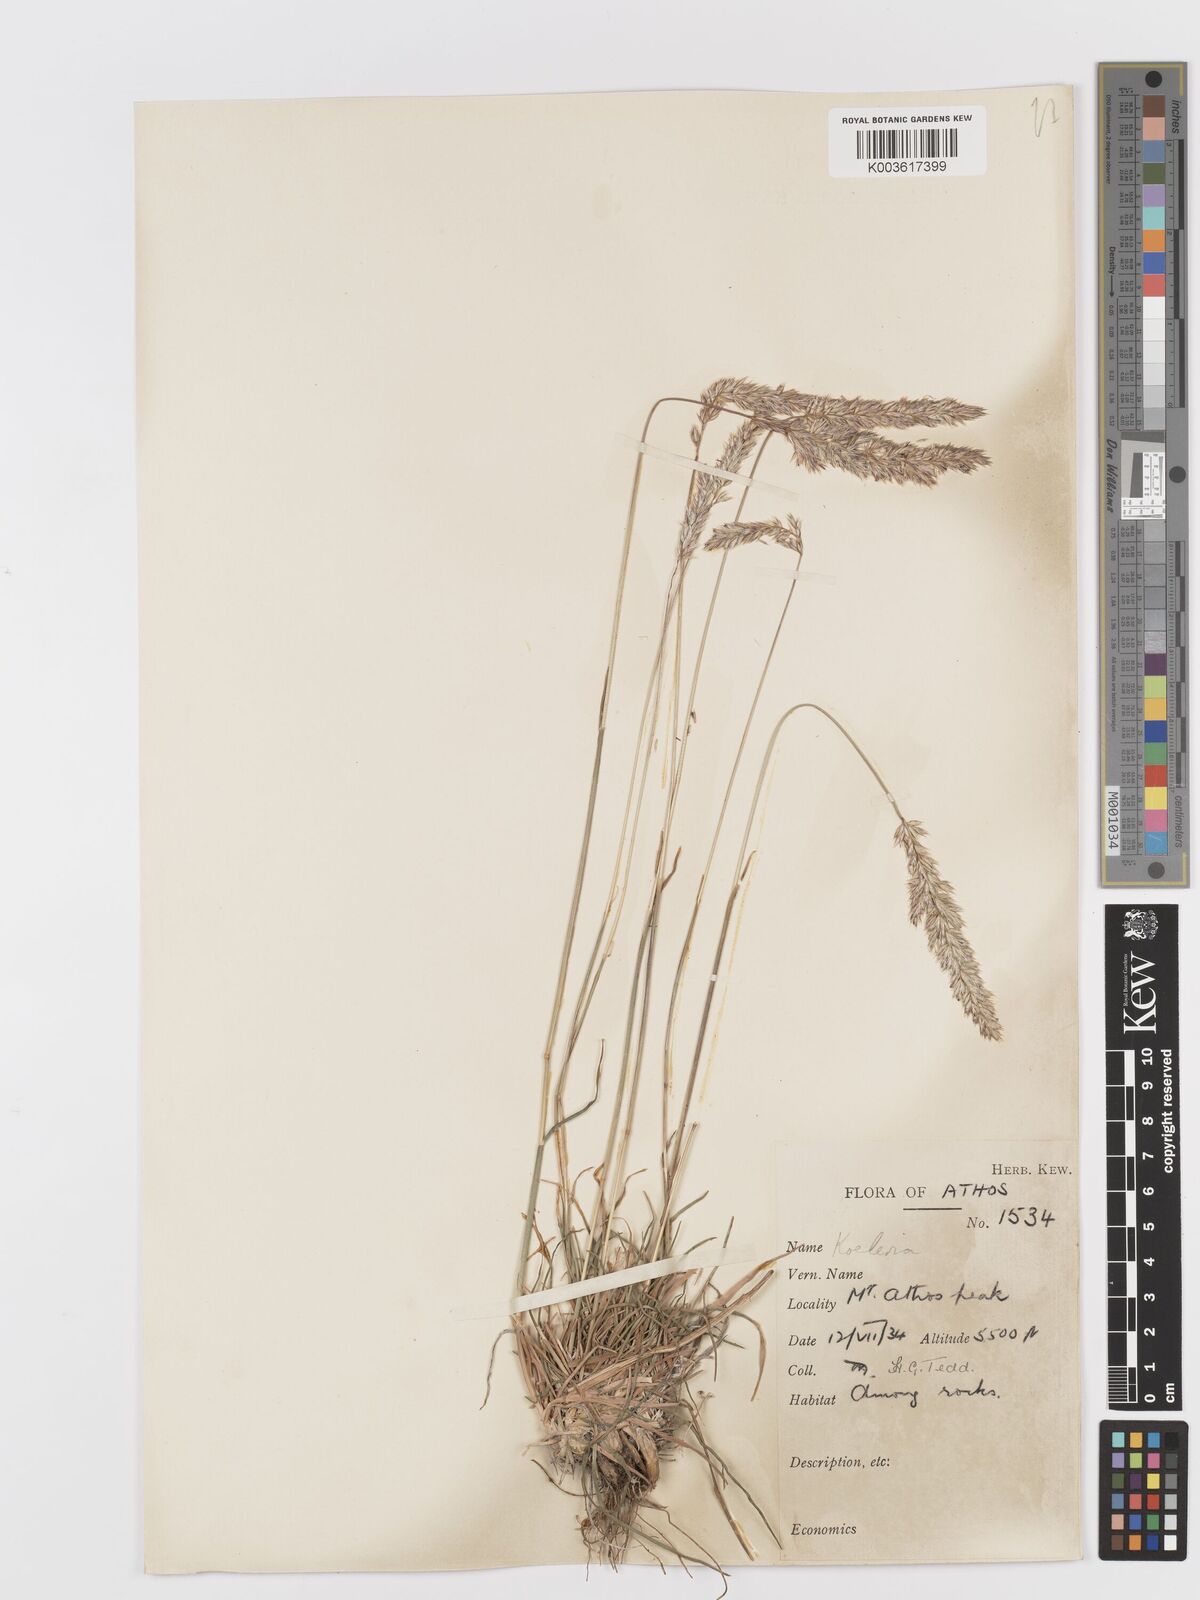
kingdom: Plantae
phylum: Tracheophyta
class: Liliopsida
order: Poales
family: Poaceae
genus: Koeleria
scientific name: Koeleria splendens
